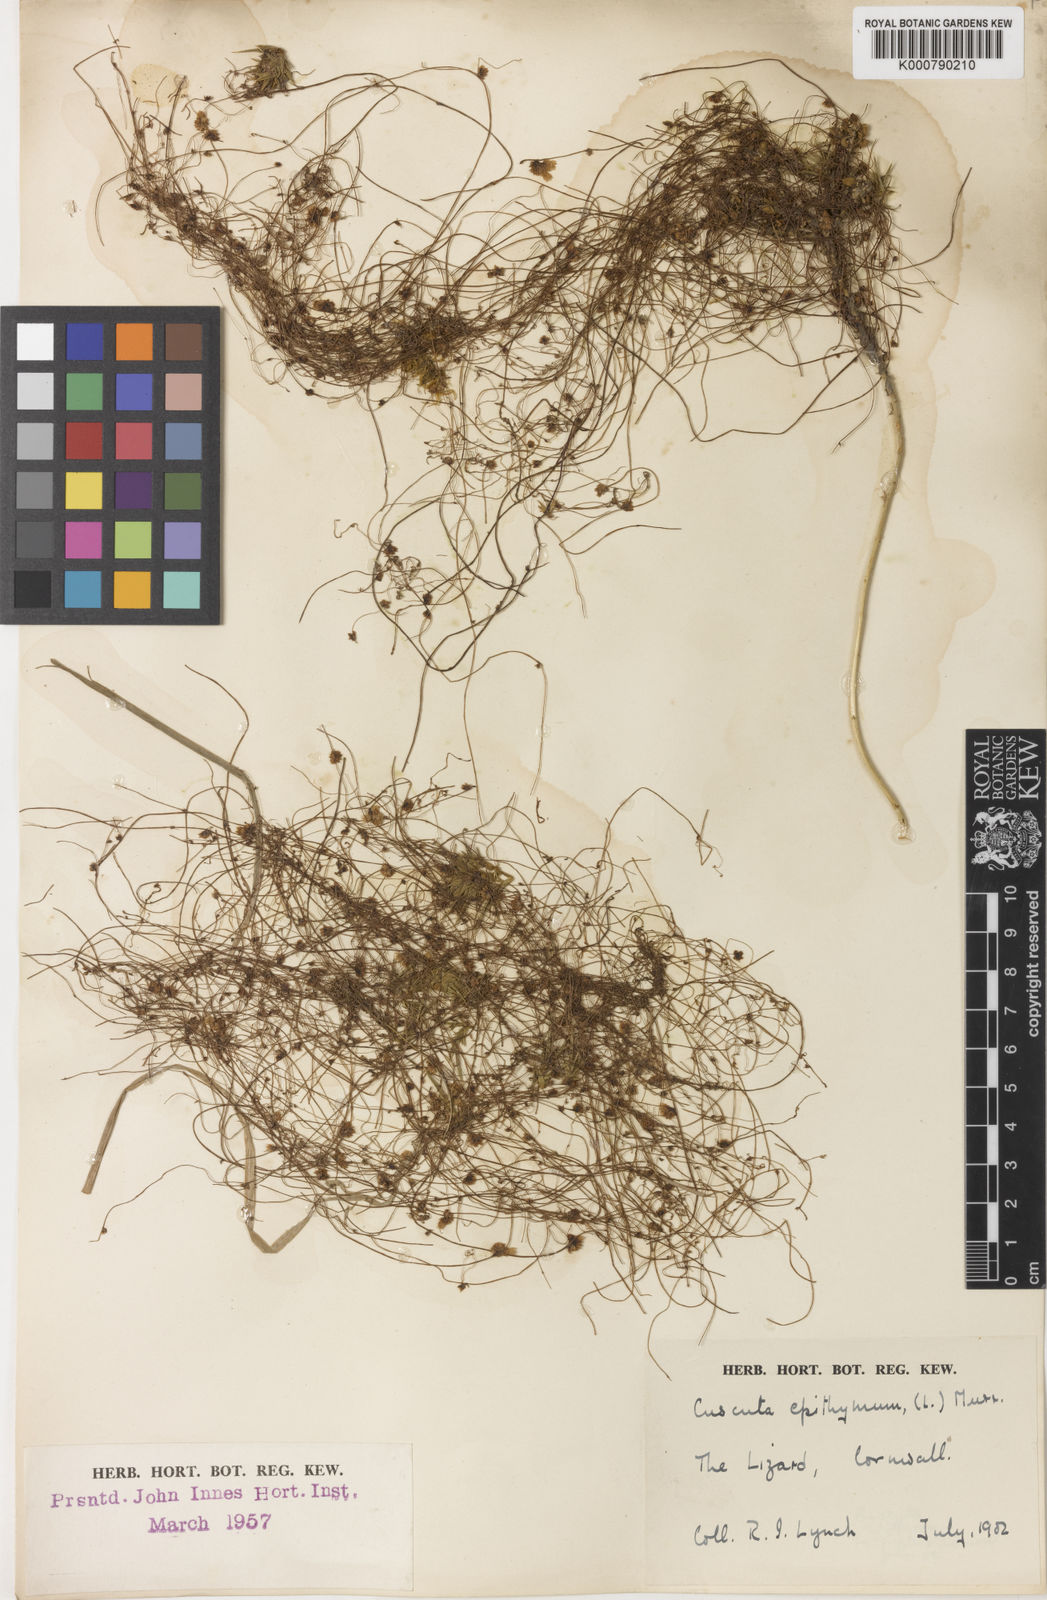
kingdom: Plantae
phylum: Tracheophyta
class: Magnoliopsida
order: Solanales
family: Convolvulaceae
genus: Cuscuta
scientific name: Cuscuta epithymum
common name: Clover dodder
